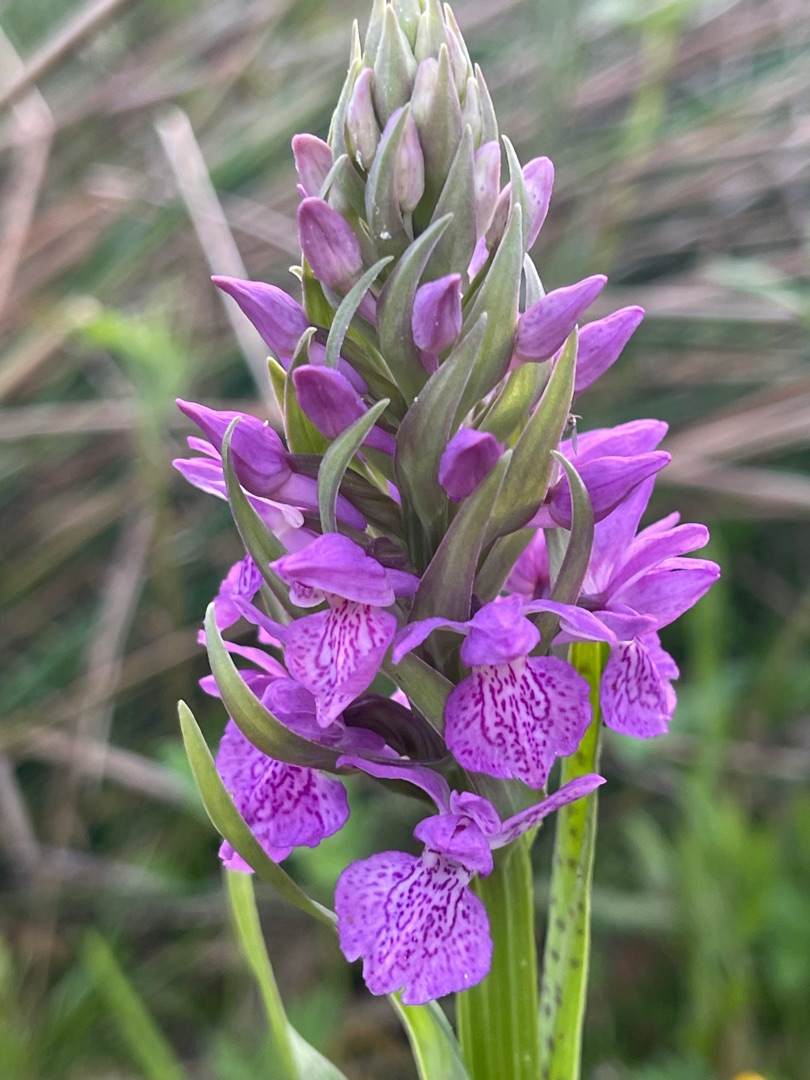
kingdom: Plantae
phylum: Tracheophyta
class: Liliopsida
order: Asparagales
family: Orchidaceae
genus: Dactylorhiza
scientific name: Dactylorhiza majalis
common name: Maj-gøgeurt
